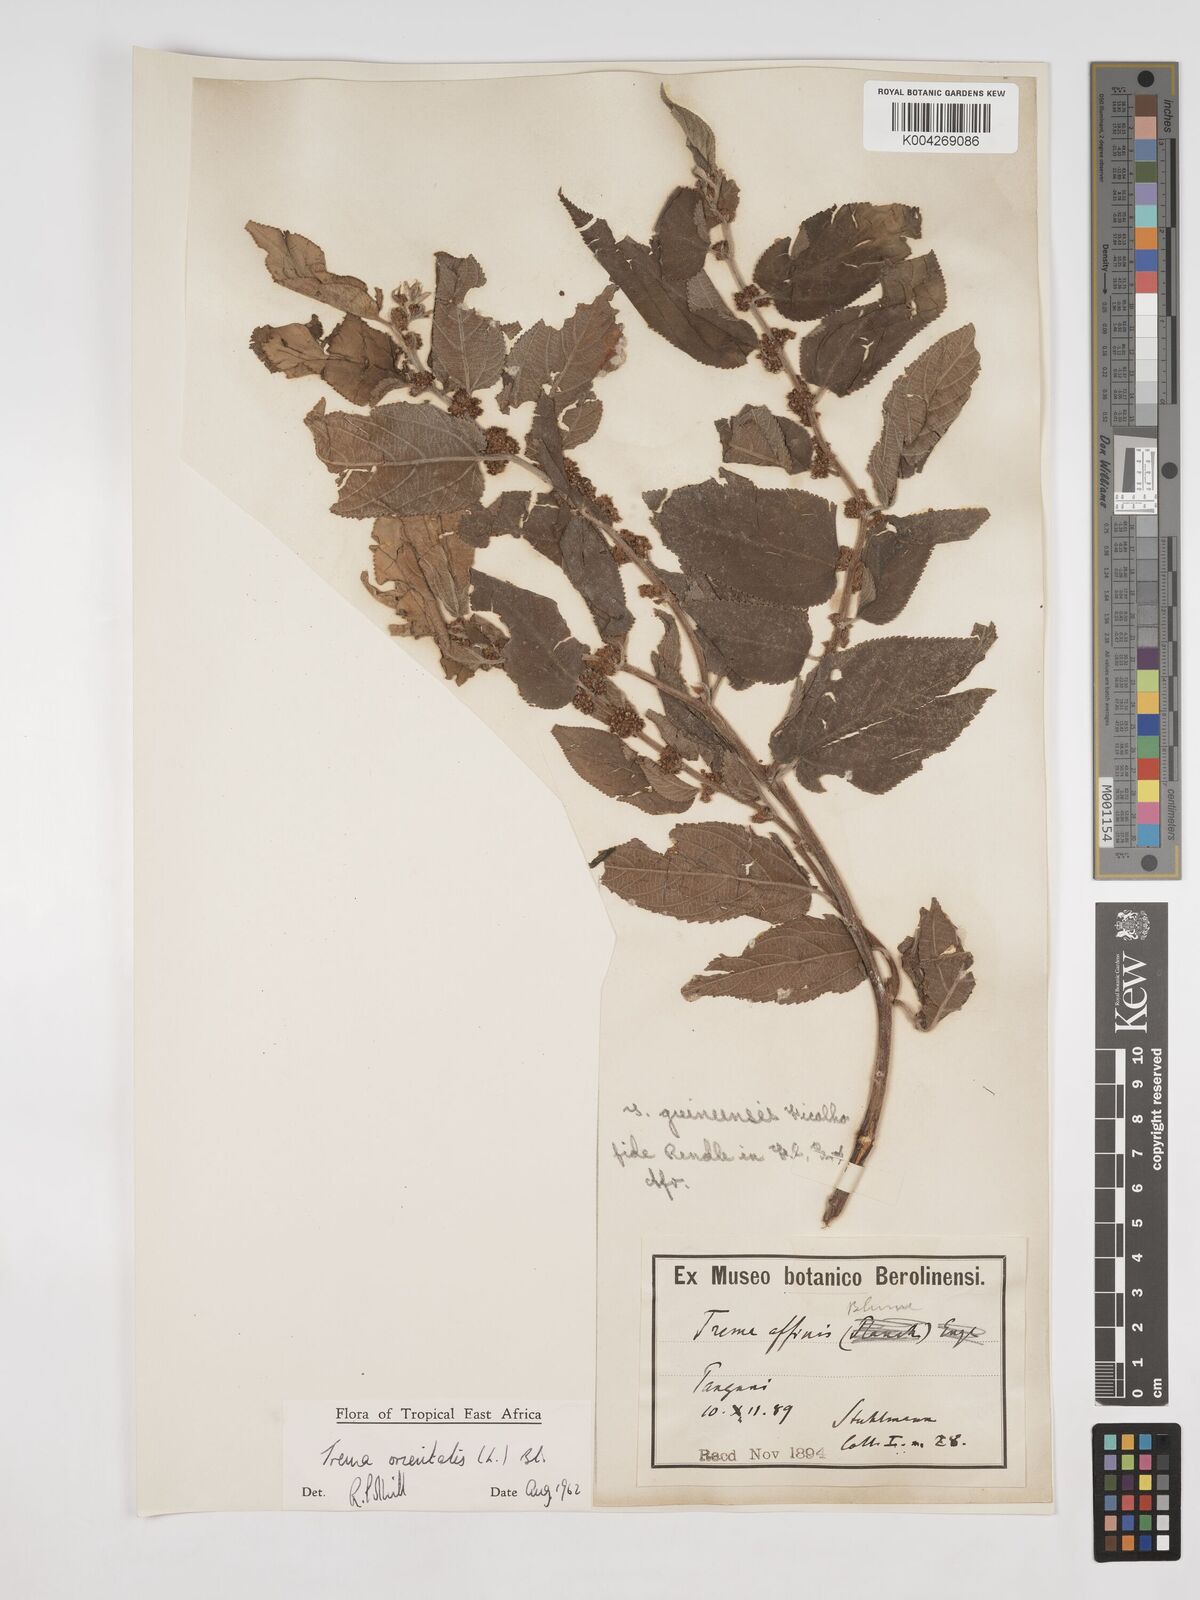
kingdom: Plantae
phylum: Tracheophyta
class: Magnoliopsida
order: Rosales
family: Cannabaceae
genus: Trema
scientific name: Trema orientale
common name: Indian charcoal tree
